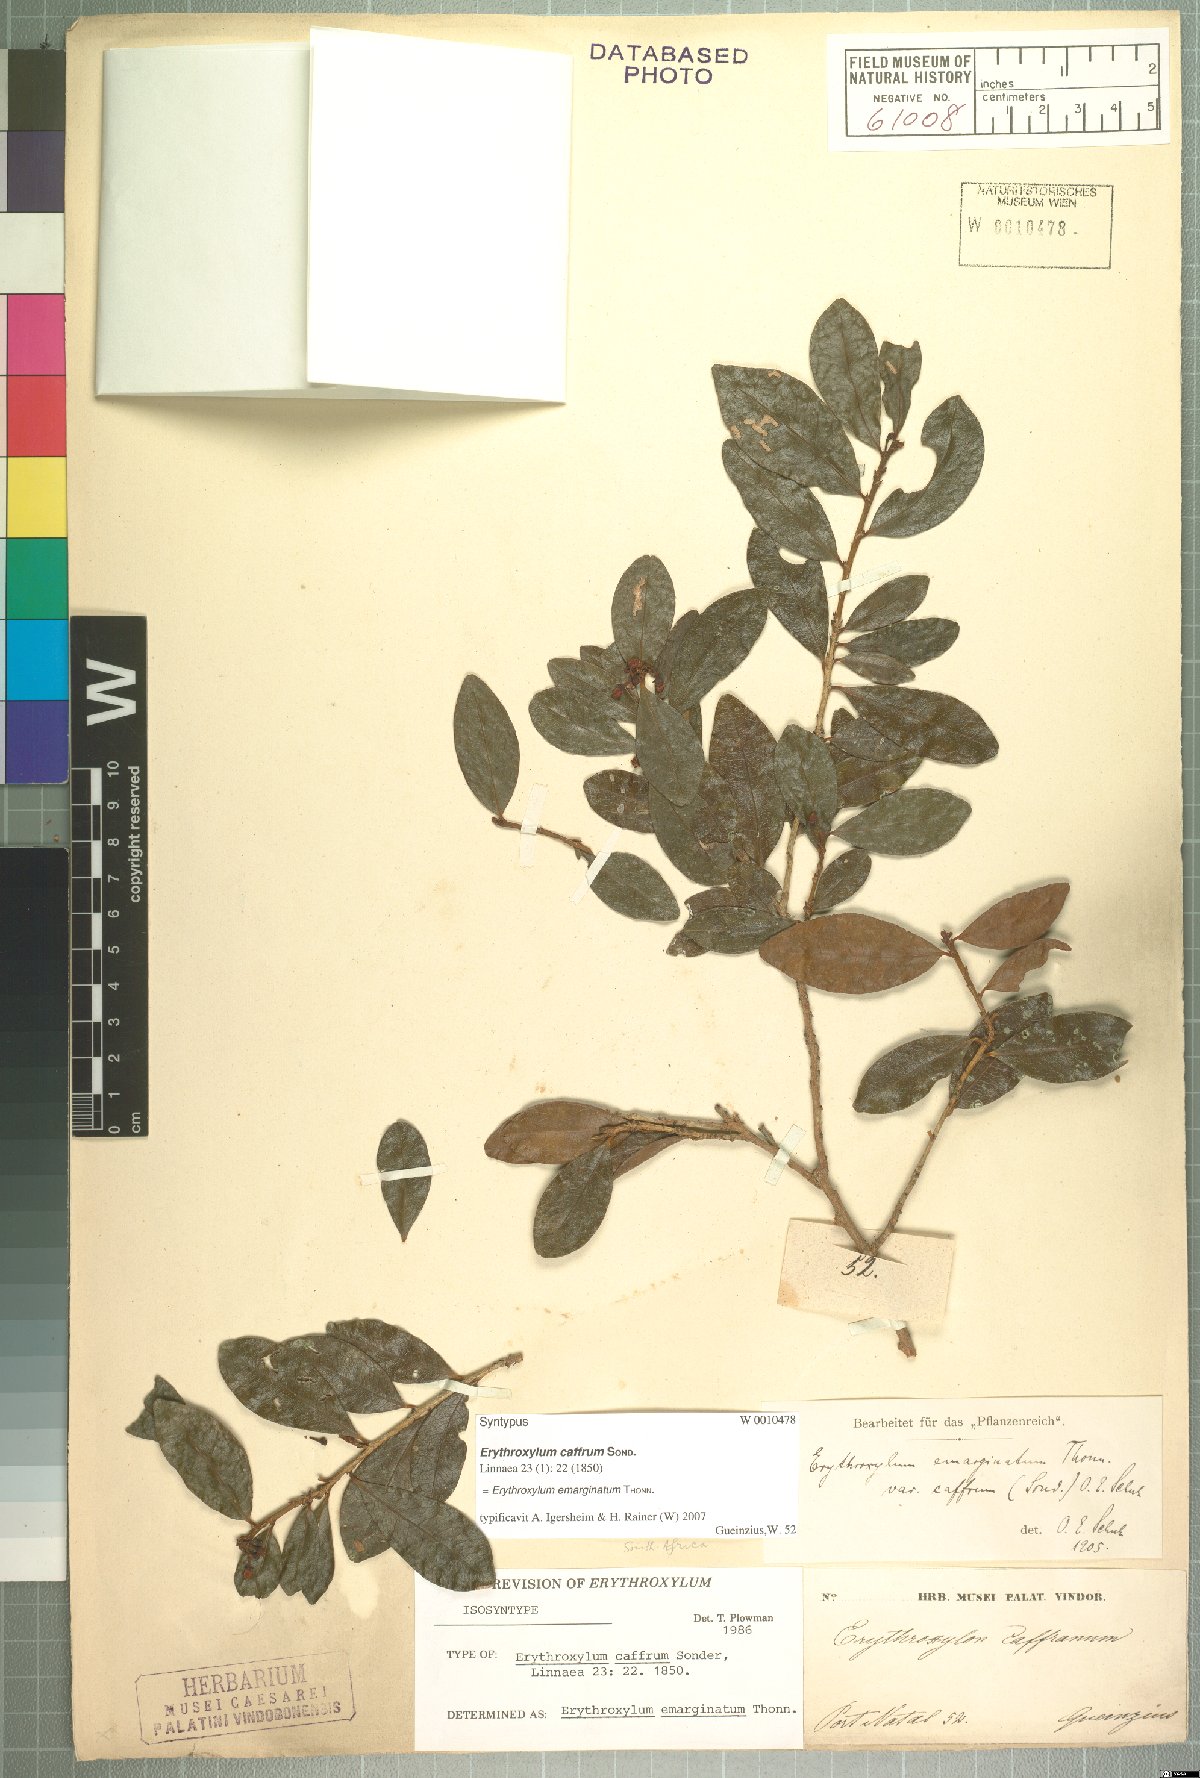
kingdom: Plantae
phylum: Tracheophyta
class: Magnoliopsida
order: Malpighiales
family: Erythroxylaceae
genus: Erythroxylum
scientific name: Erythroxylum emarginatum
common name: African coca-tree
